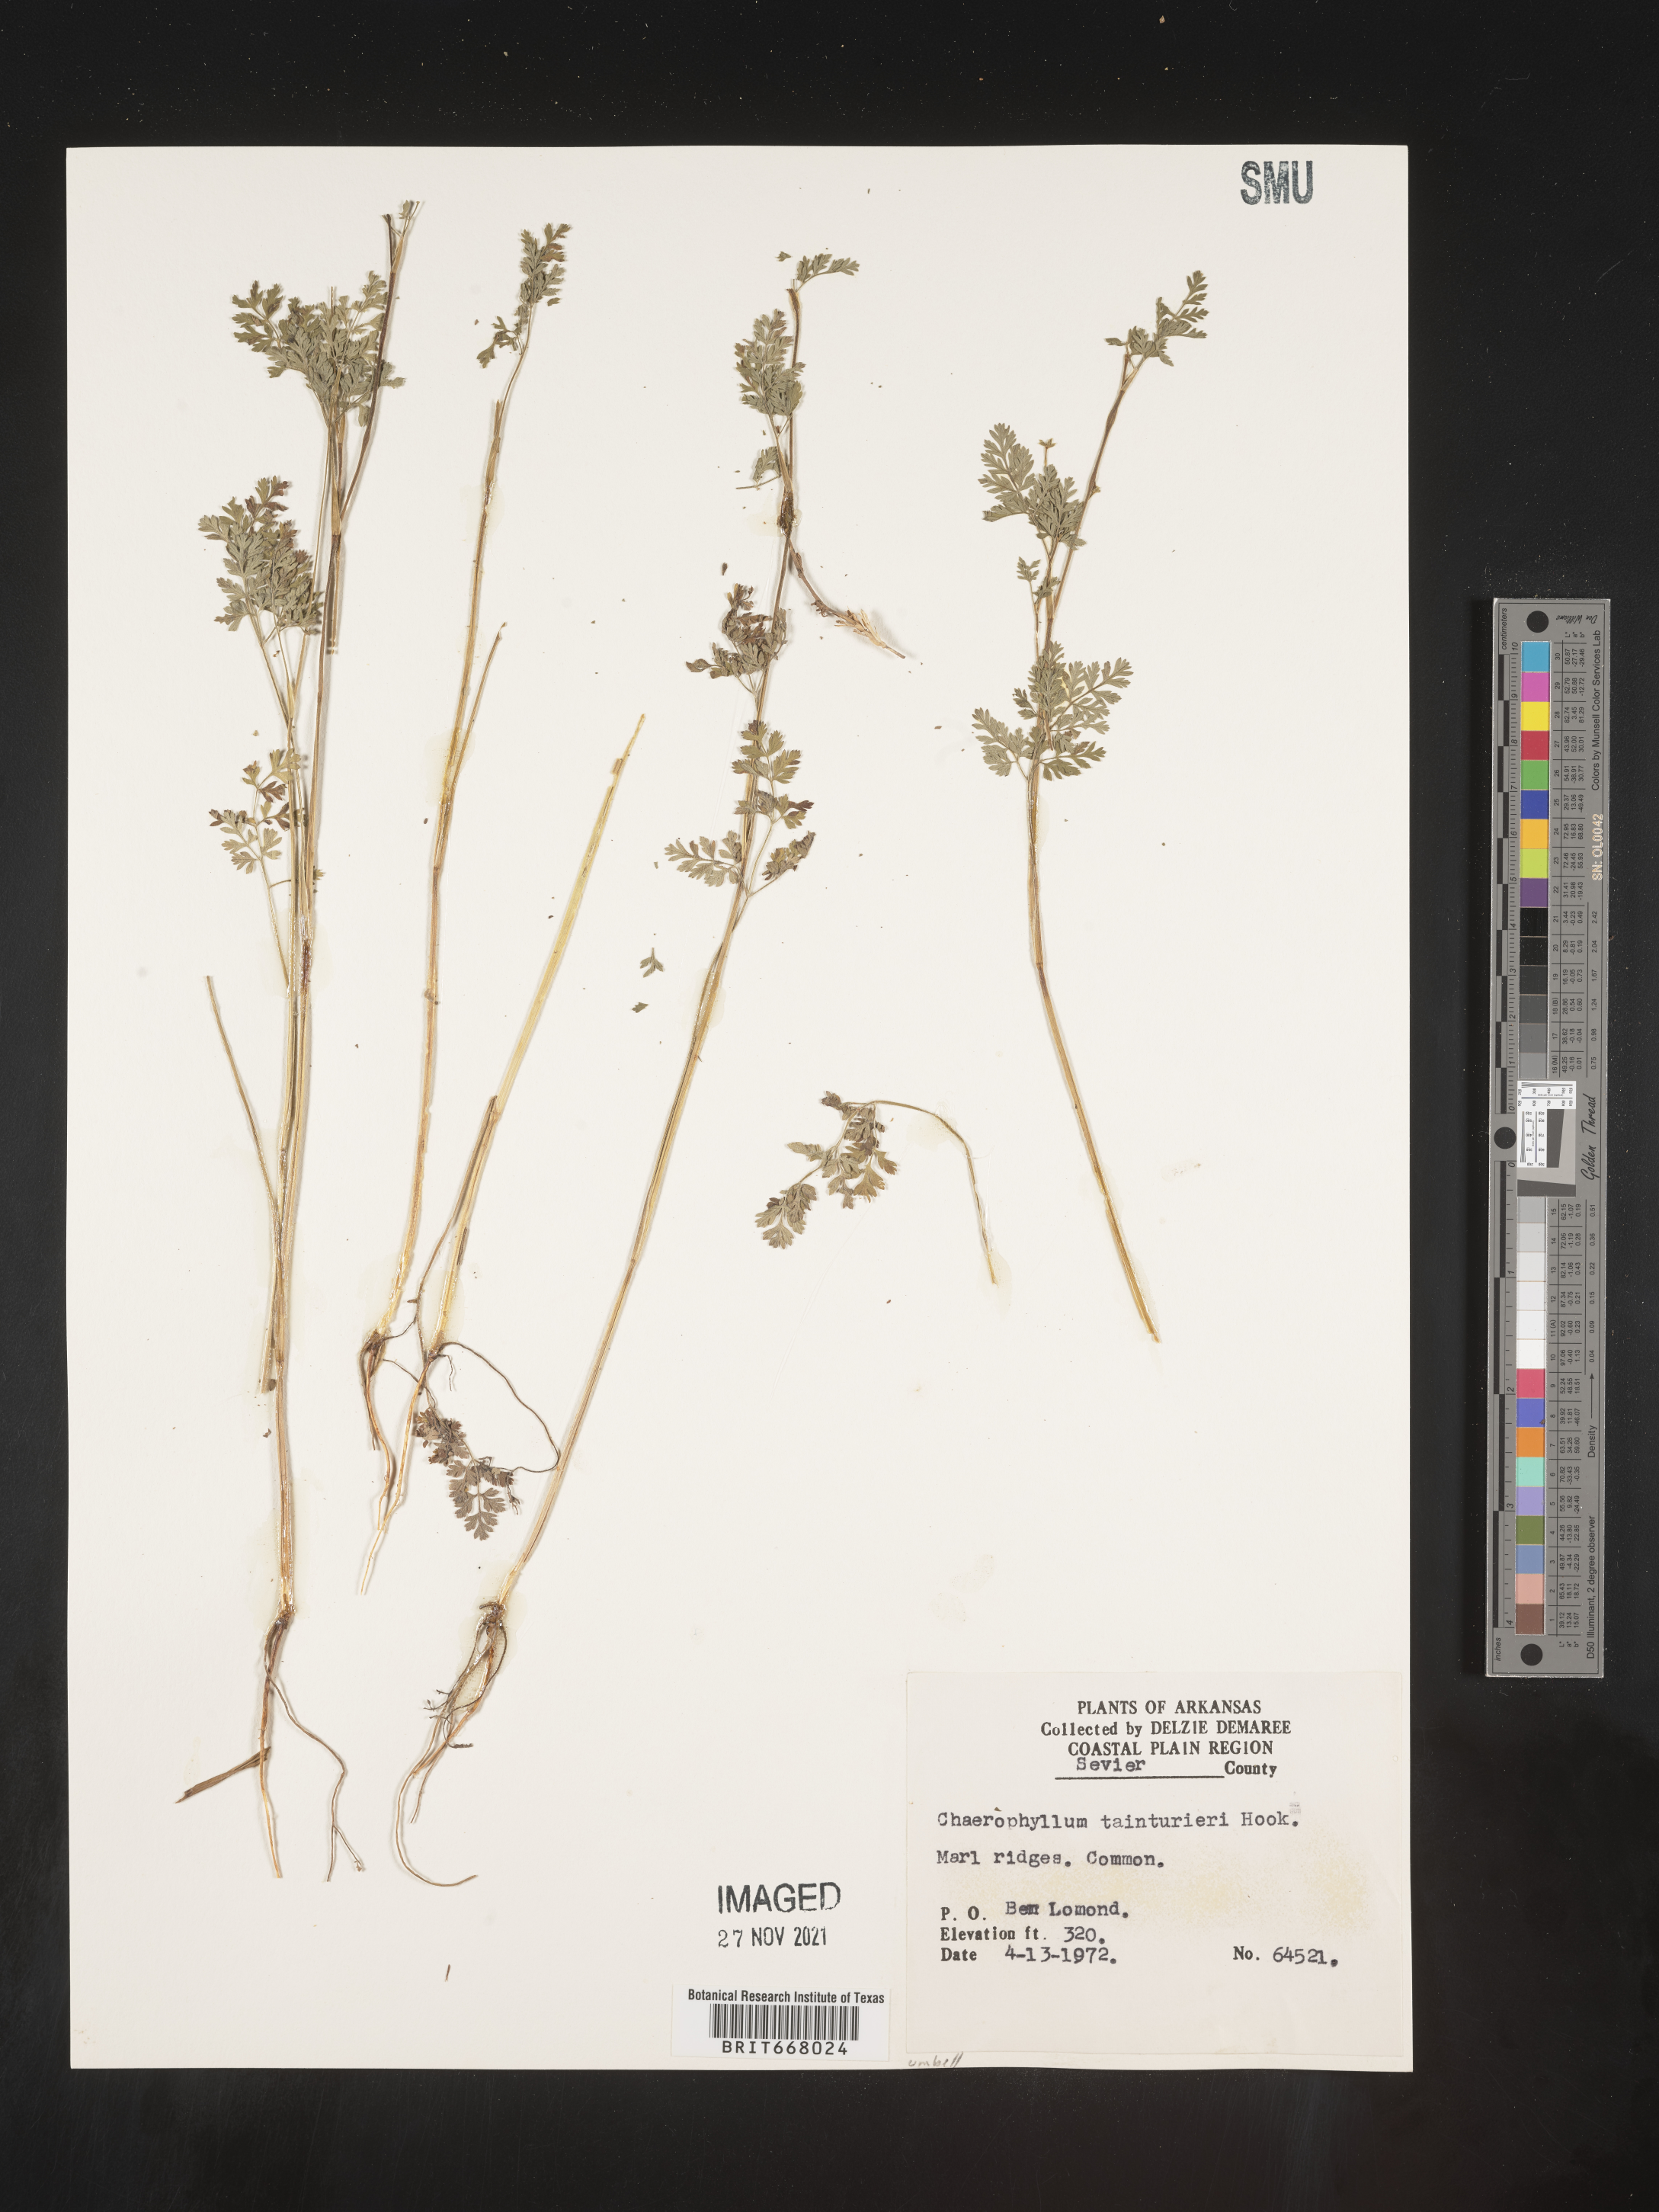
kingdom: Plantae
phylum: Tracheophyta
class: Magnoliopsida
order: Apiales
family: Apiaceae
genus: Chaerophyllum
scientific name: Chaerophyllum tainturieri
